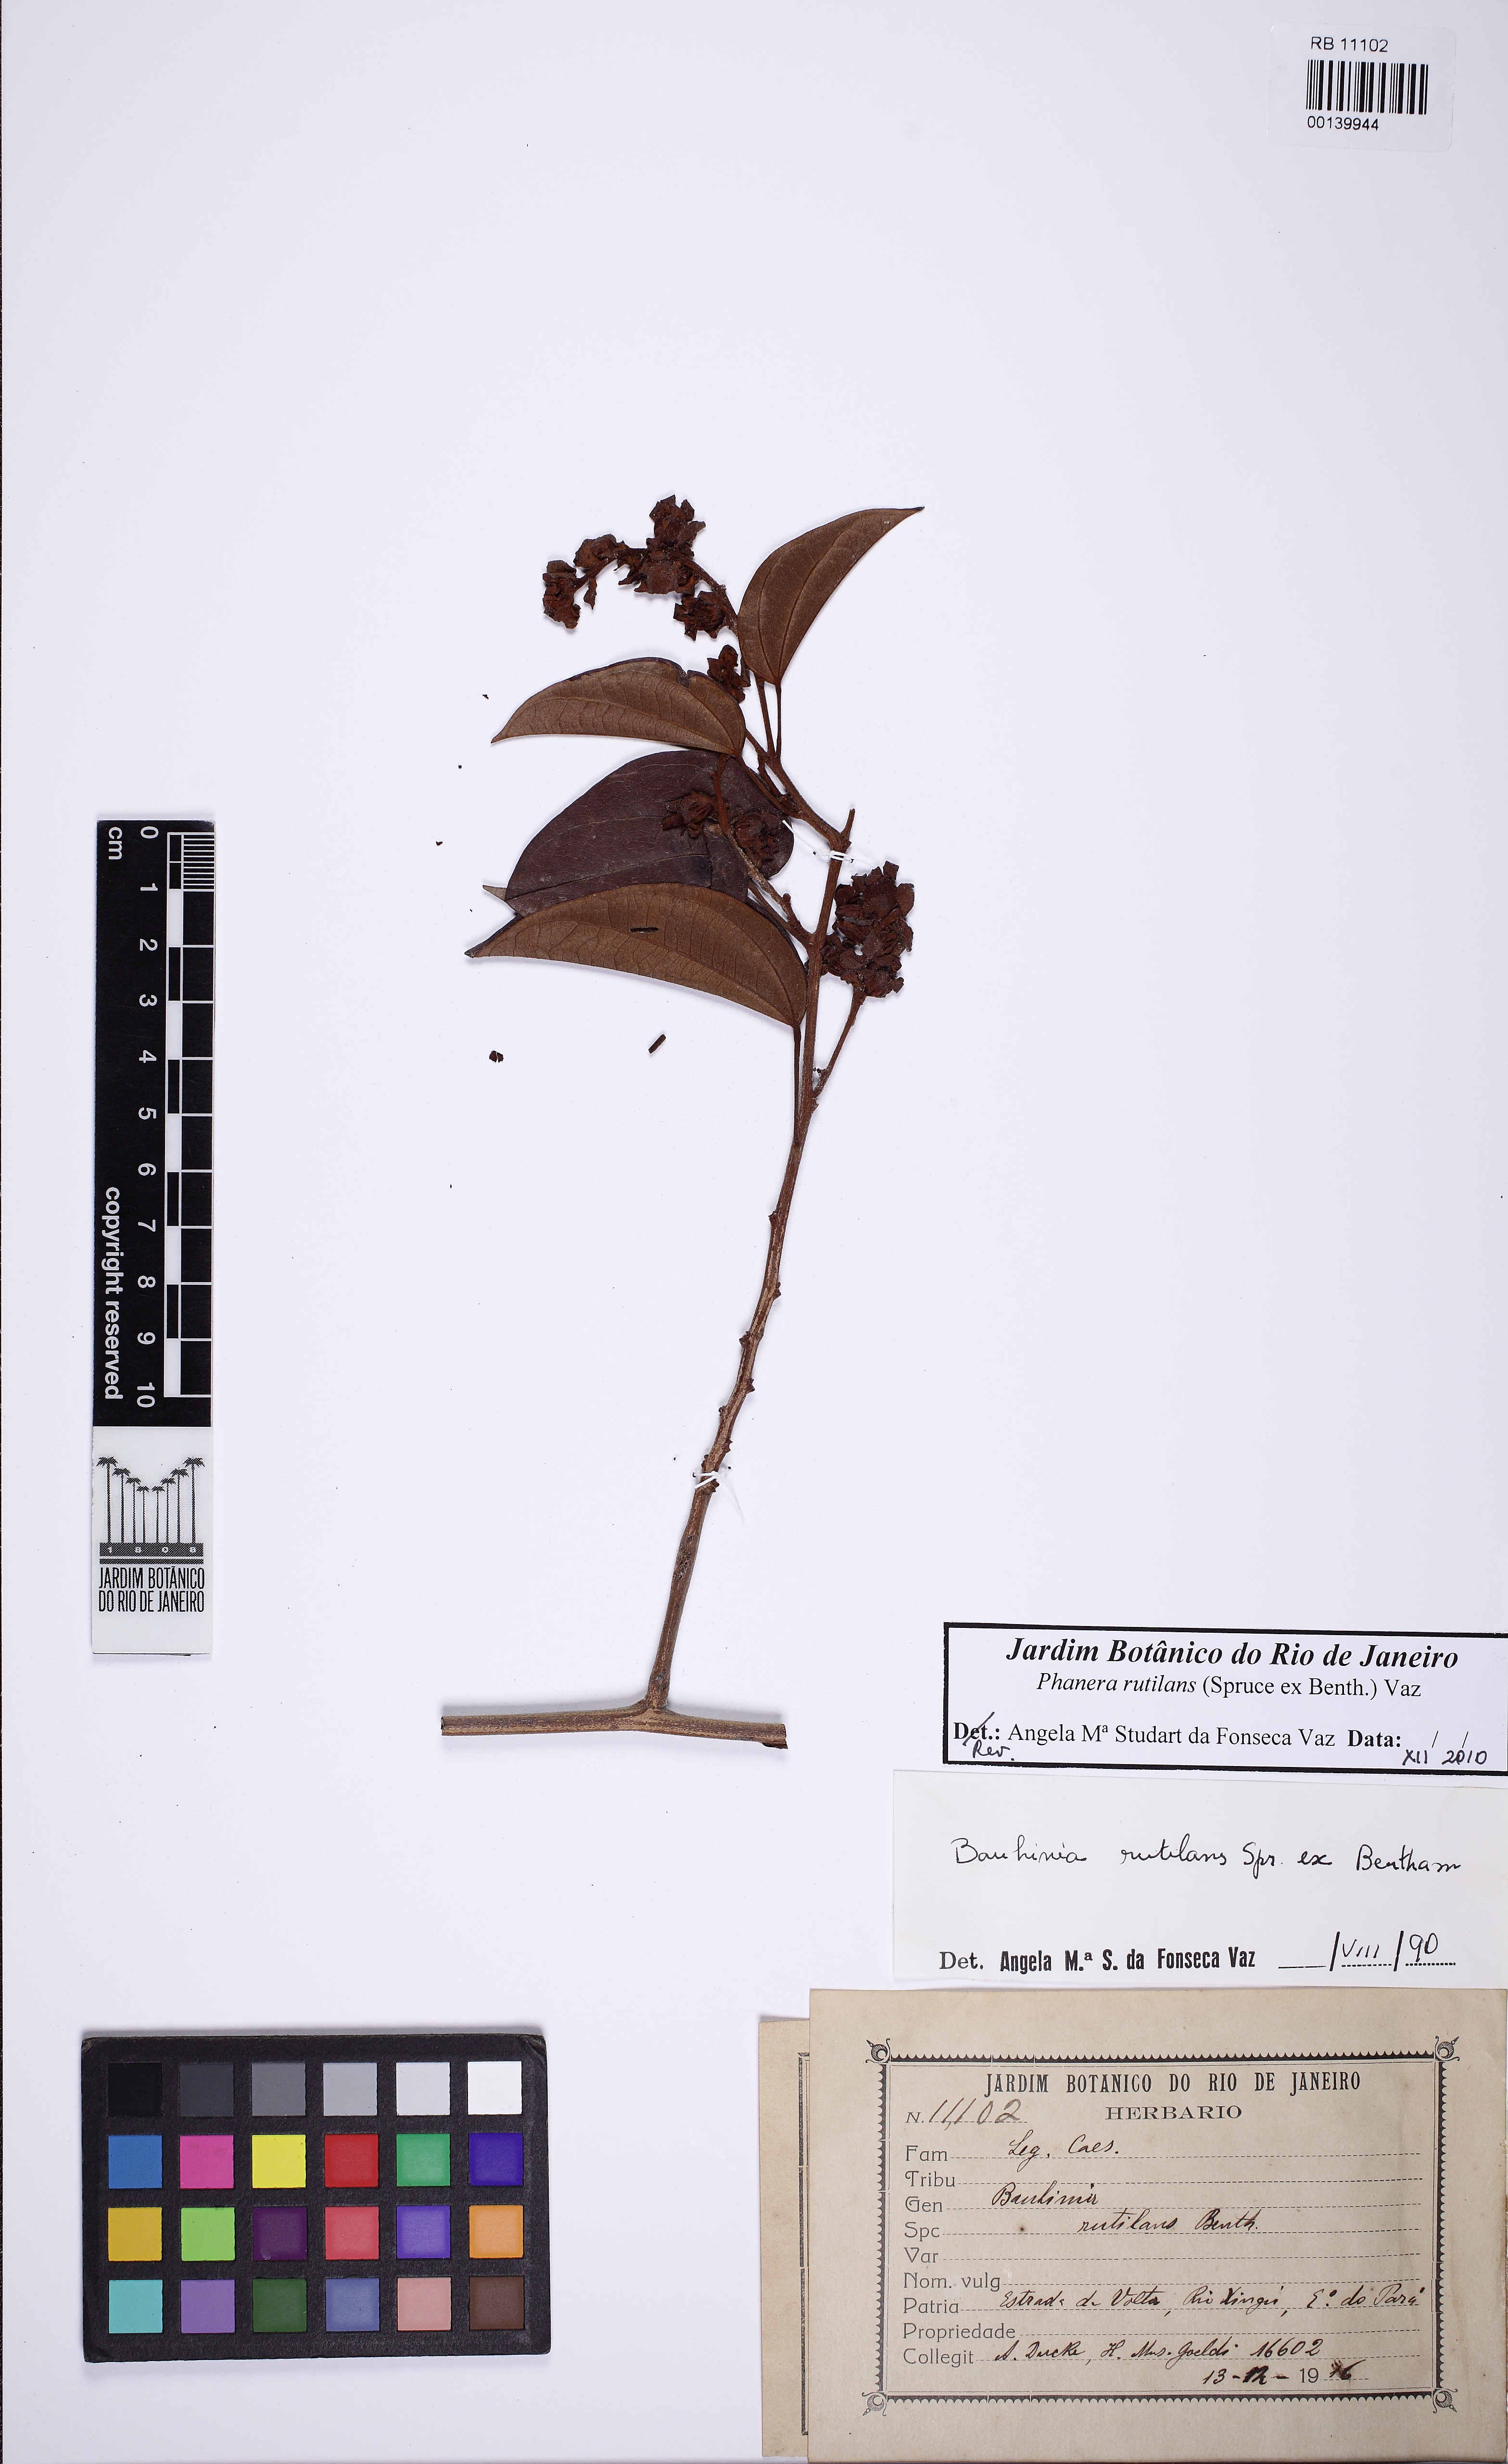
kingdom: Plantae
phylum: Tracheophyta
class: Magnoliopsida
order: Fabales
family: Fabaceae
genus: Schnella
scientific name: Schnella rutilans
